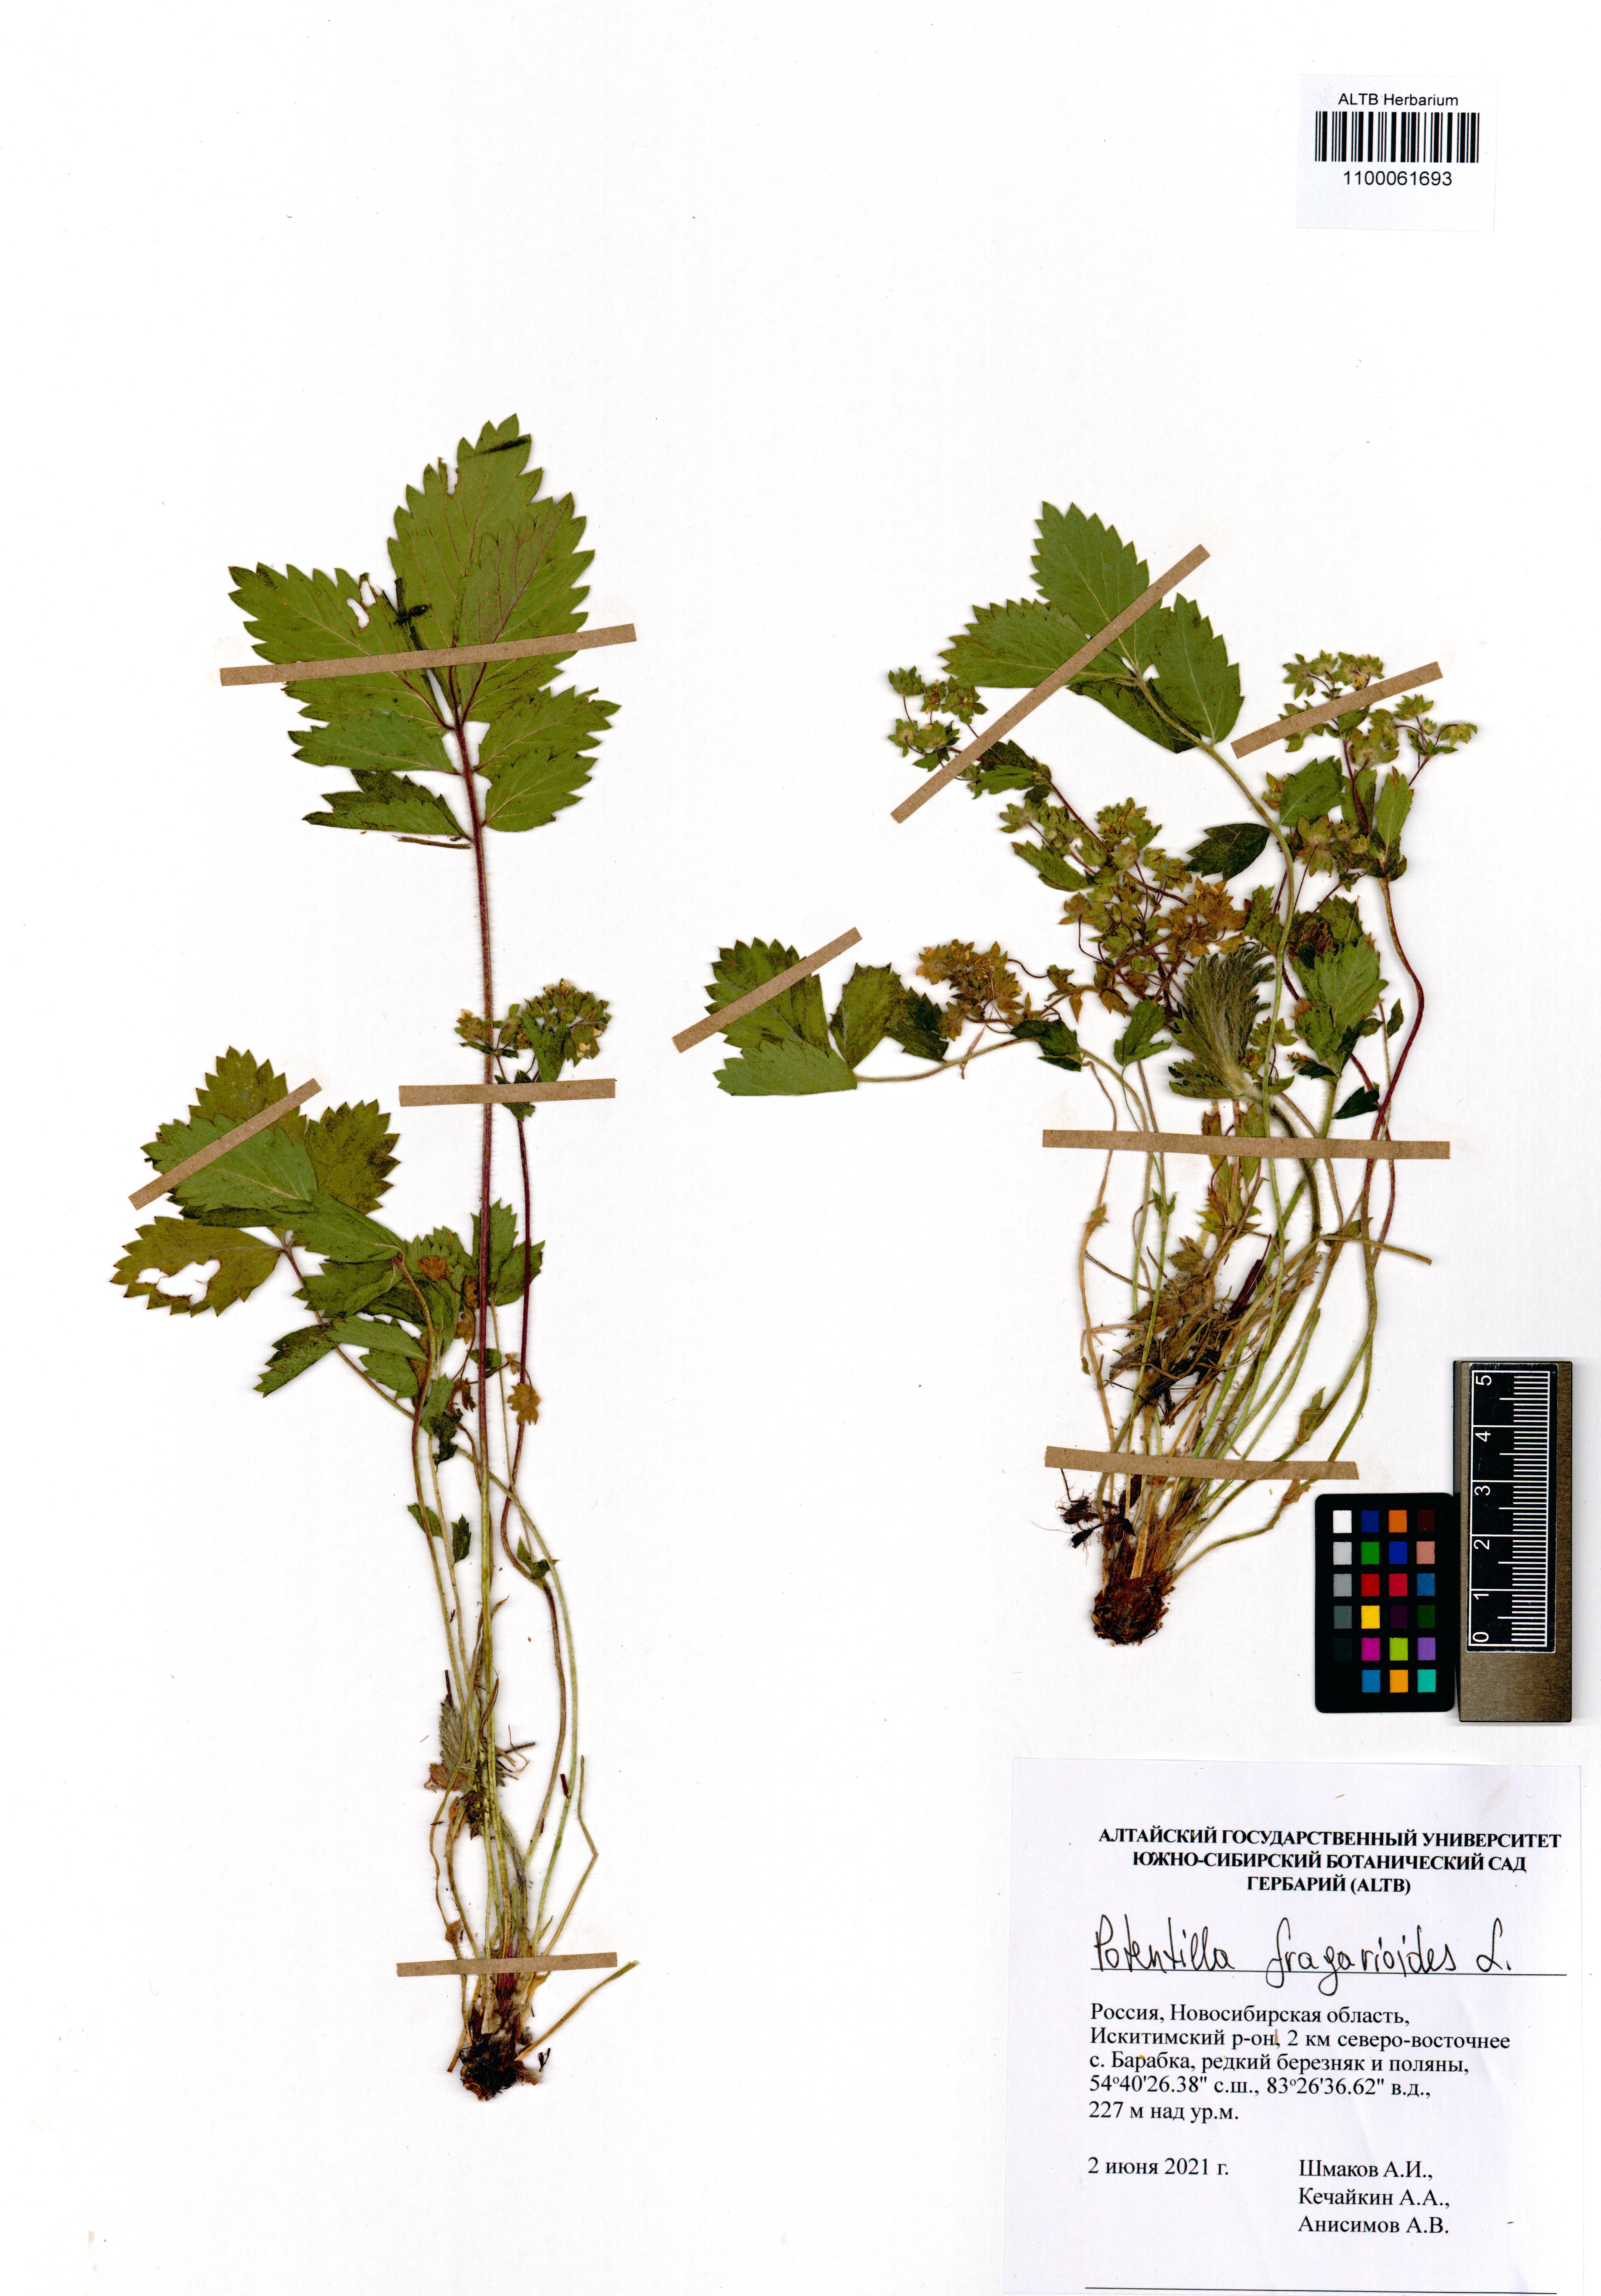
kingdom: Plantae
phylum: Tracheophyta
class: Magnoliopsida
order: Rosales
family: Rosaceae
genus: Potentilla
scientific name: Potentilla fragarioides
